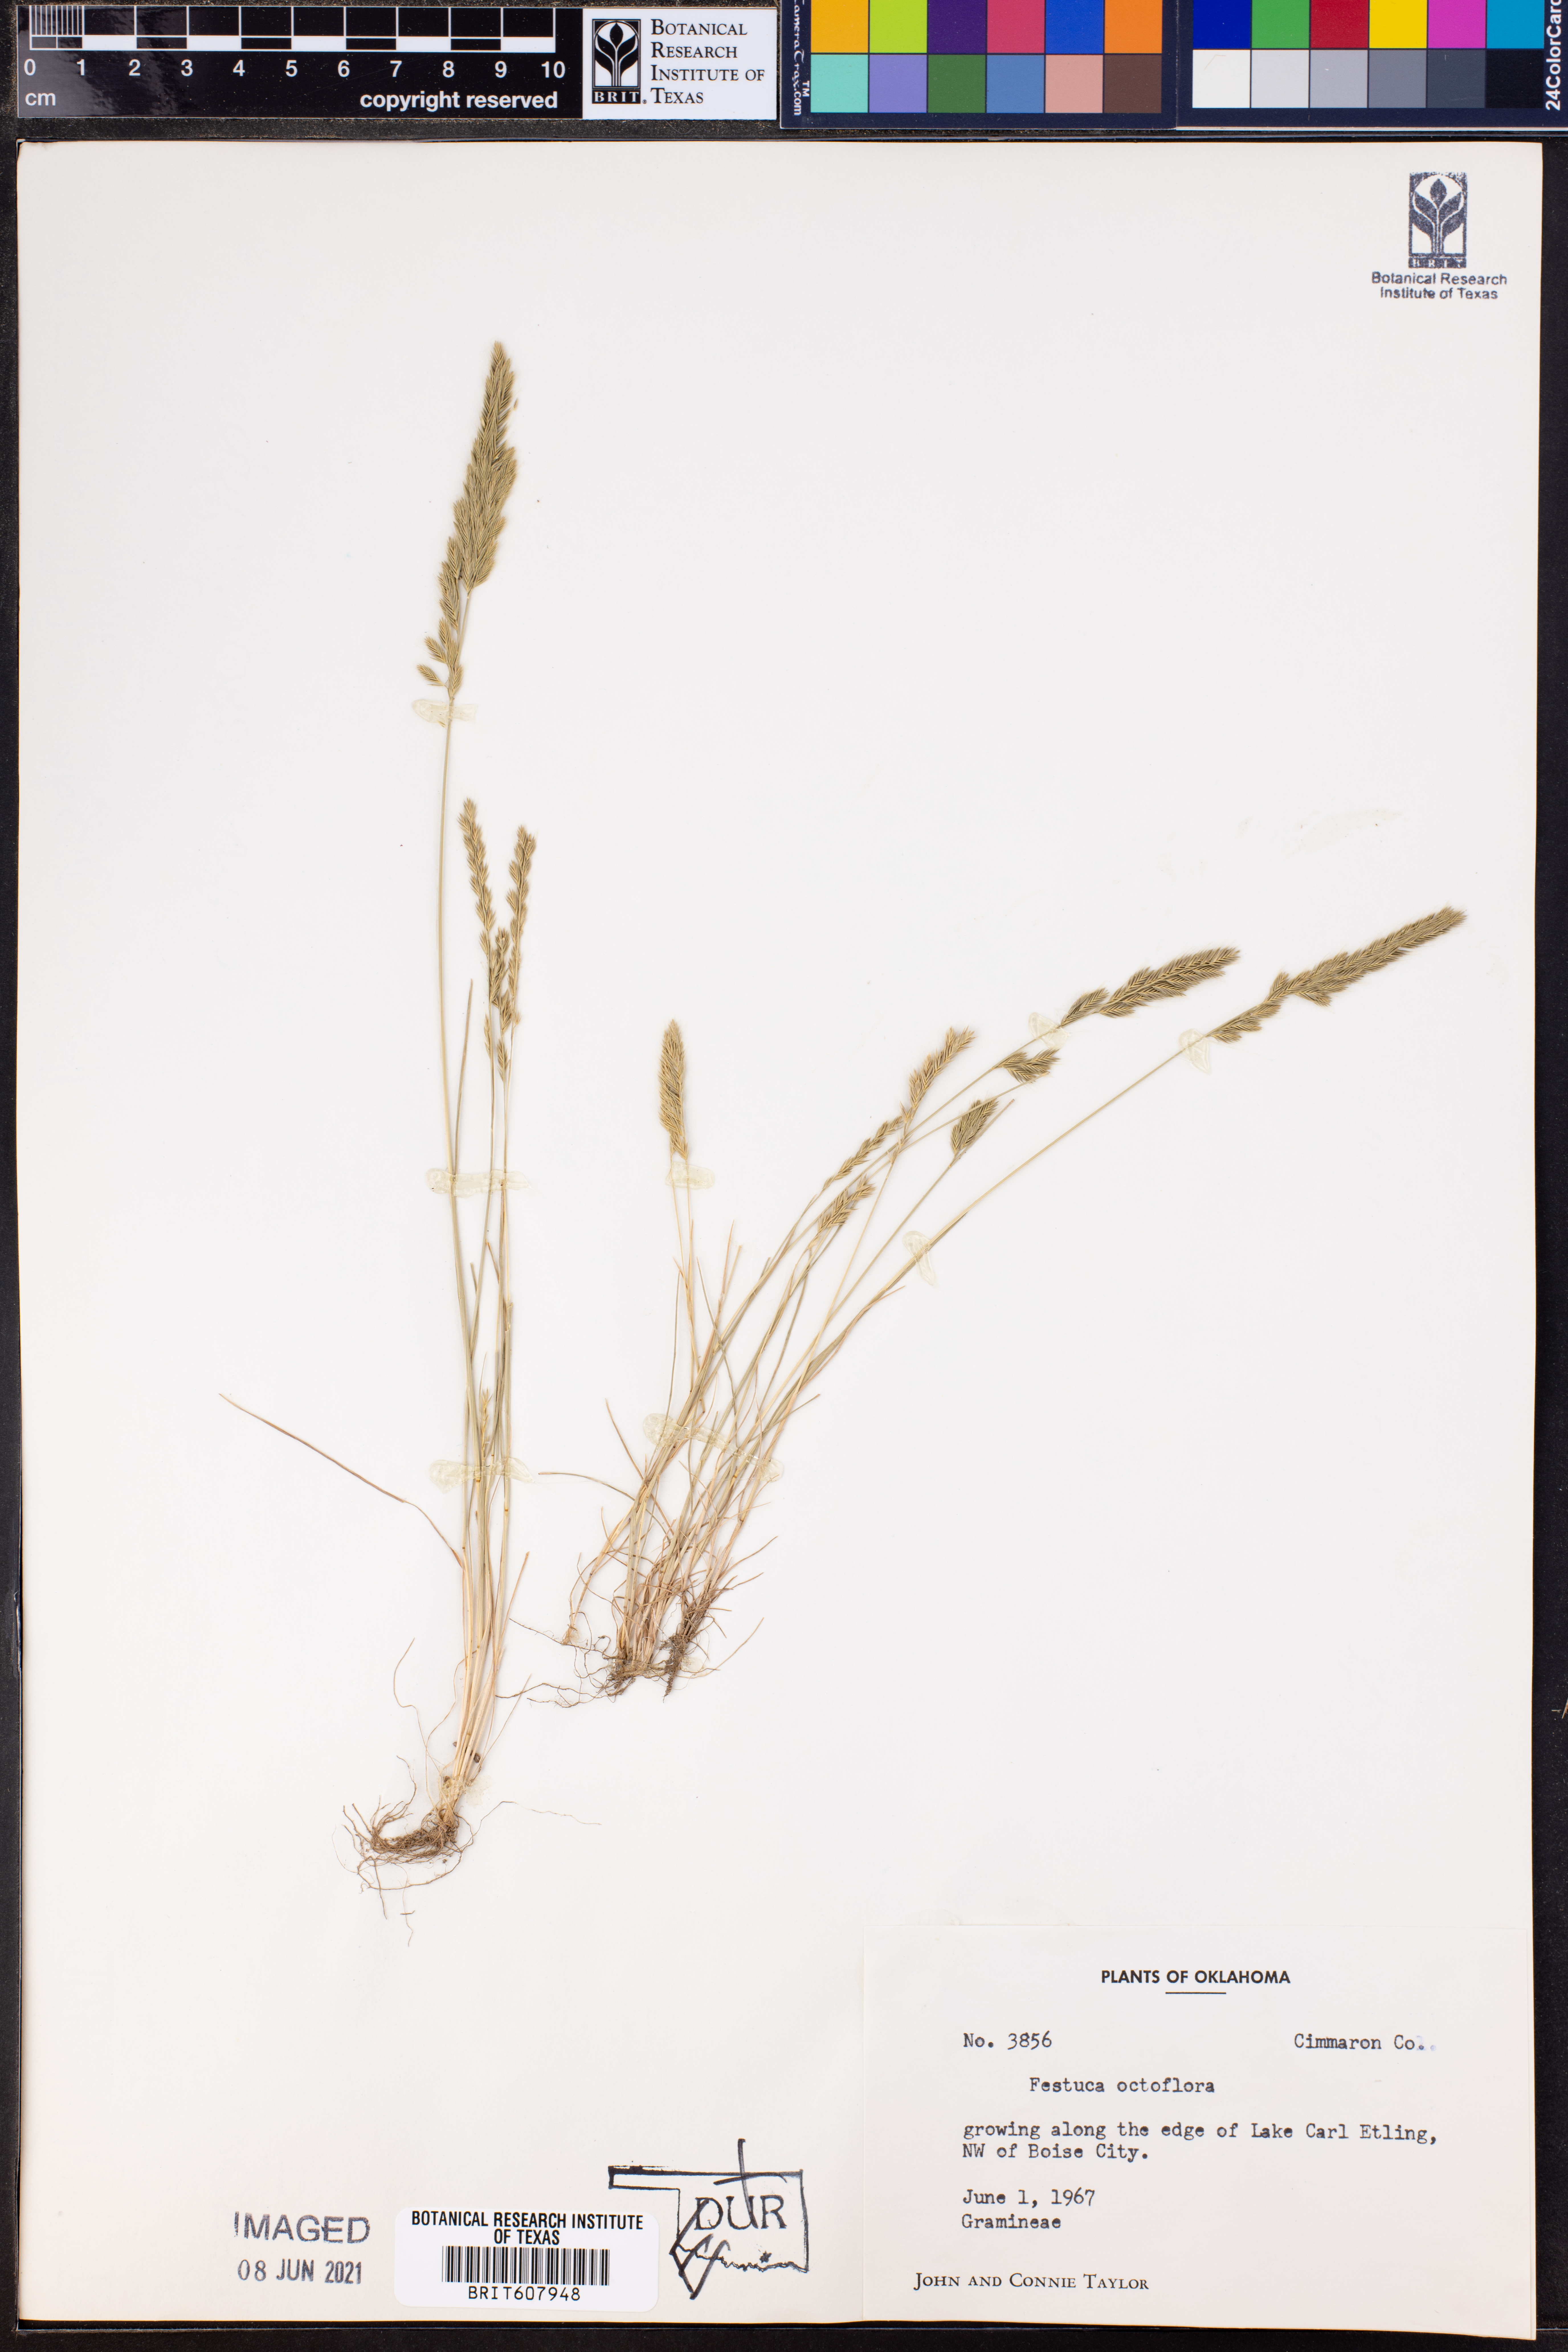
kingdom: Plantae
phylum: Tracheophyta
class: Liliopsida
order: Poales
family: Poaceae
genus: Festuca
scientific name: Festuca octoflora
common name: Sixweeks grass
